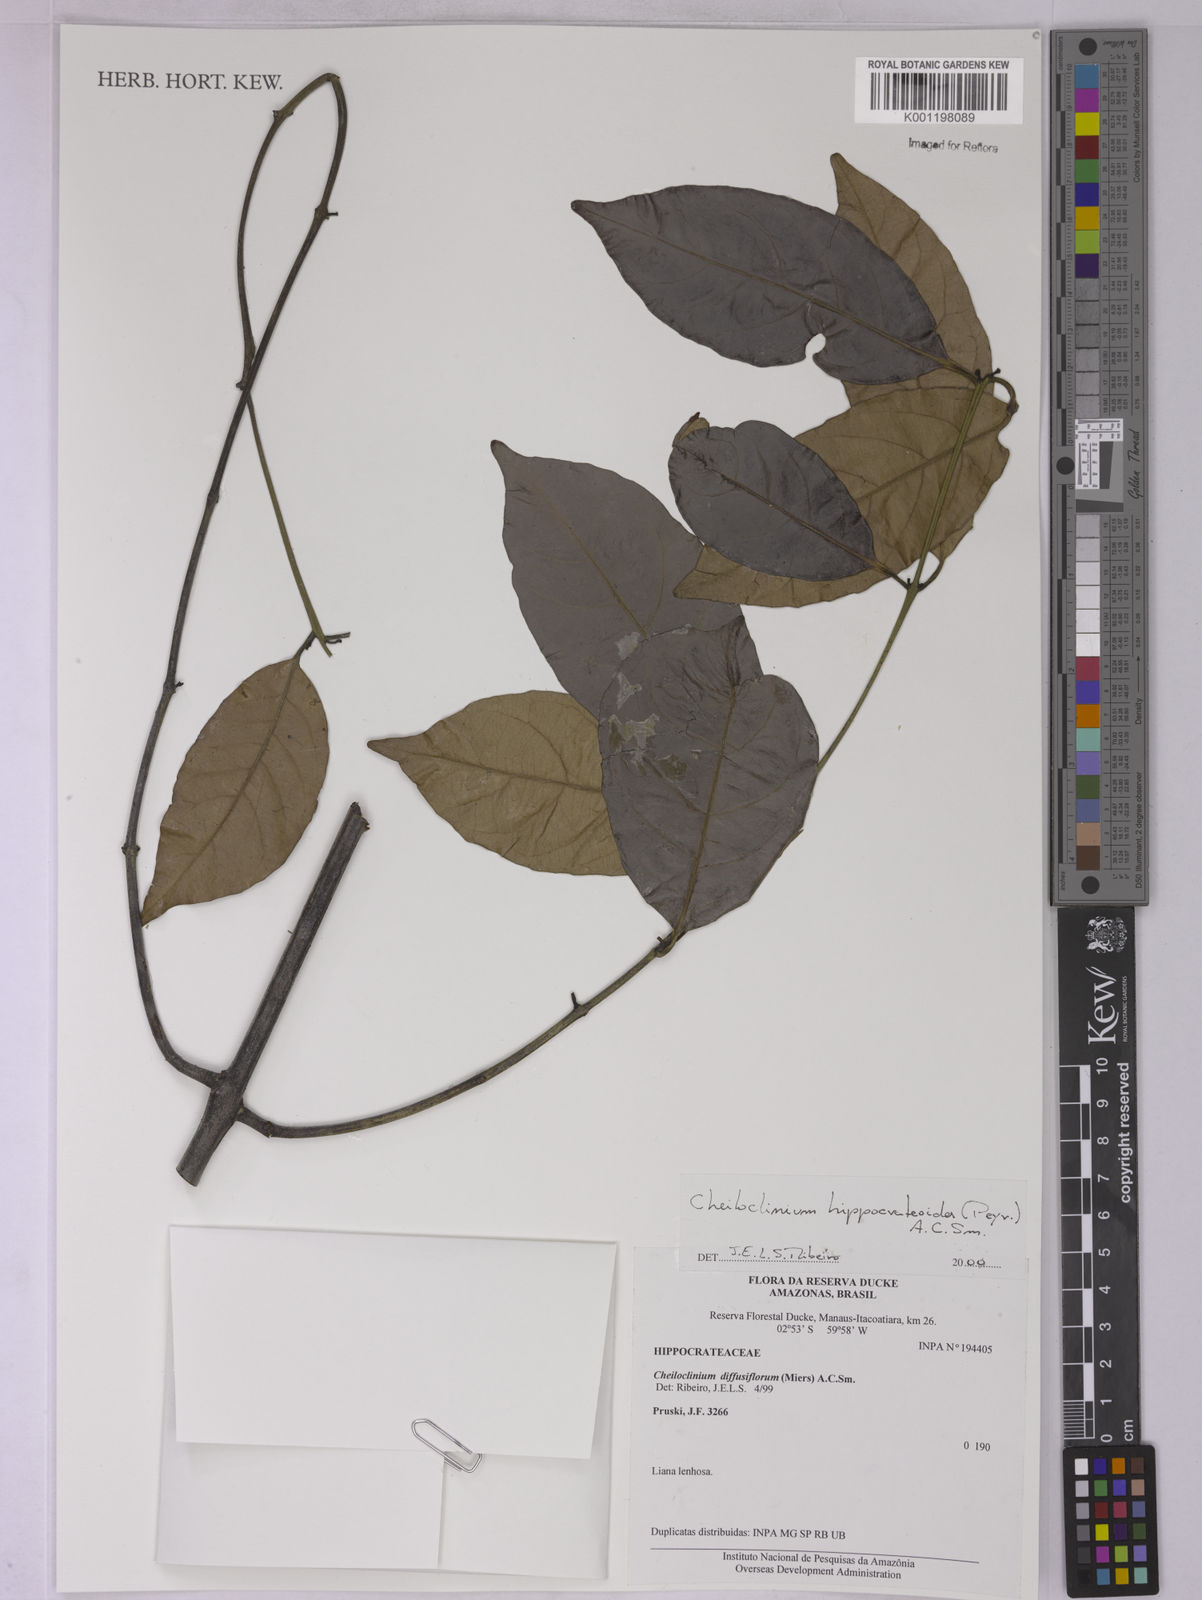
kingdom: Plantae
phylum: Tracheophyta
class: Magnoliopsida
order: Celastrales
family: Celastraceae
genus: Cheiloclinium
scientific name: Cheiloclinium hippocrateoides
